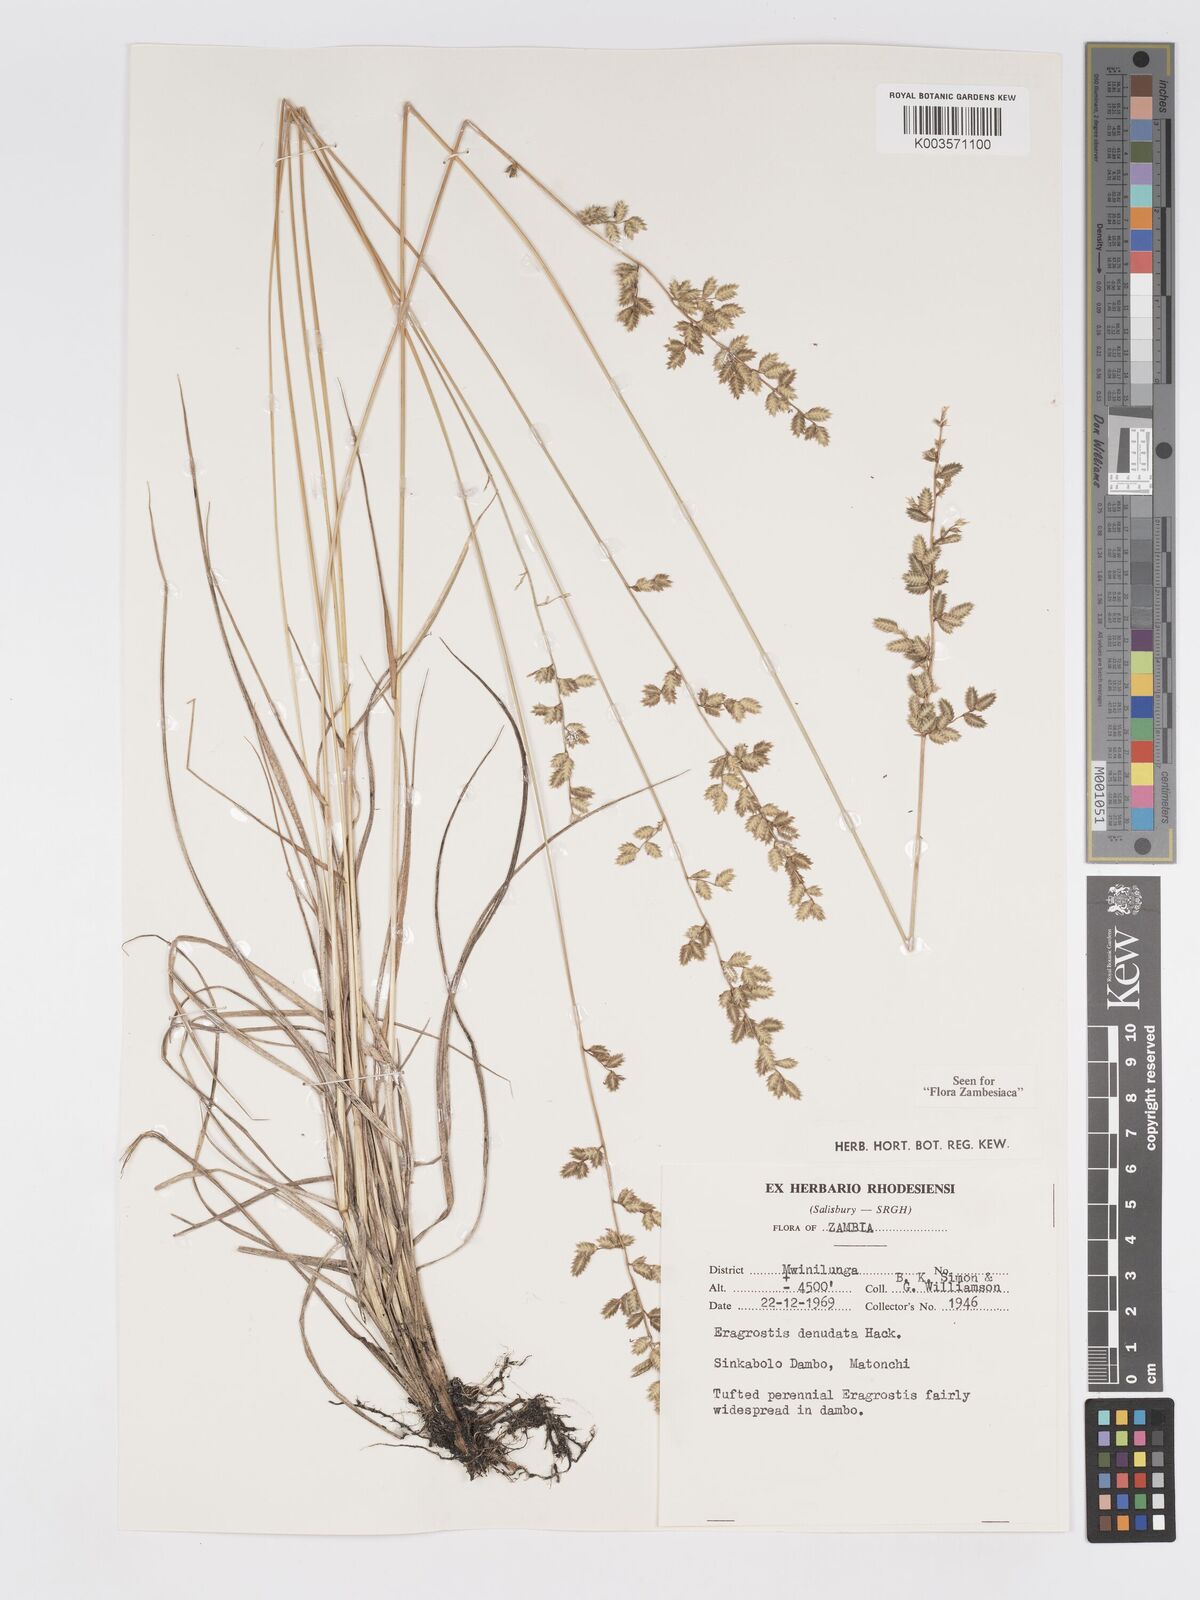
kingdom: Plantae
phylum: Tracheophyta
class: Liliopsida
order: Poales
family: Poaceae
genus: Eragrostis
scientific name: Eragrostis nindensis
